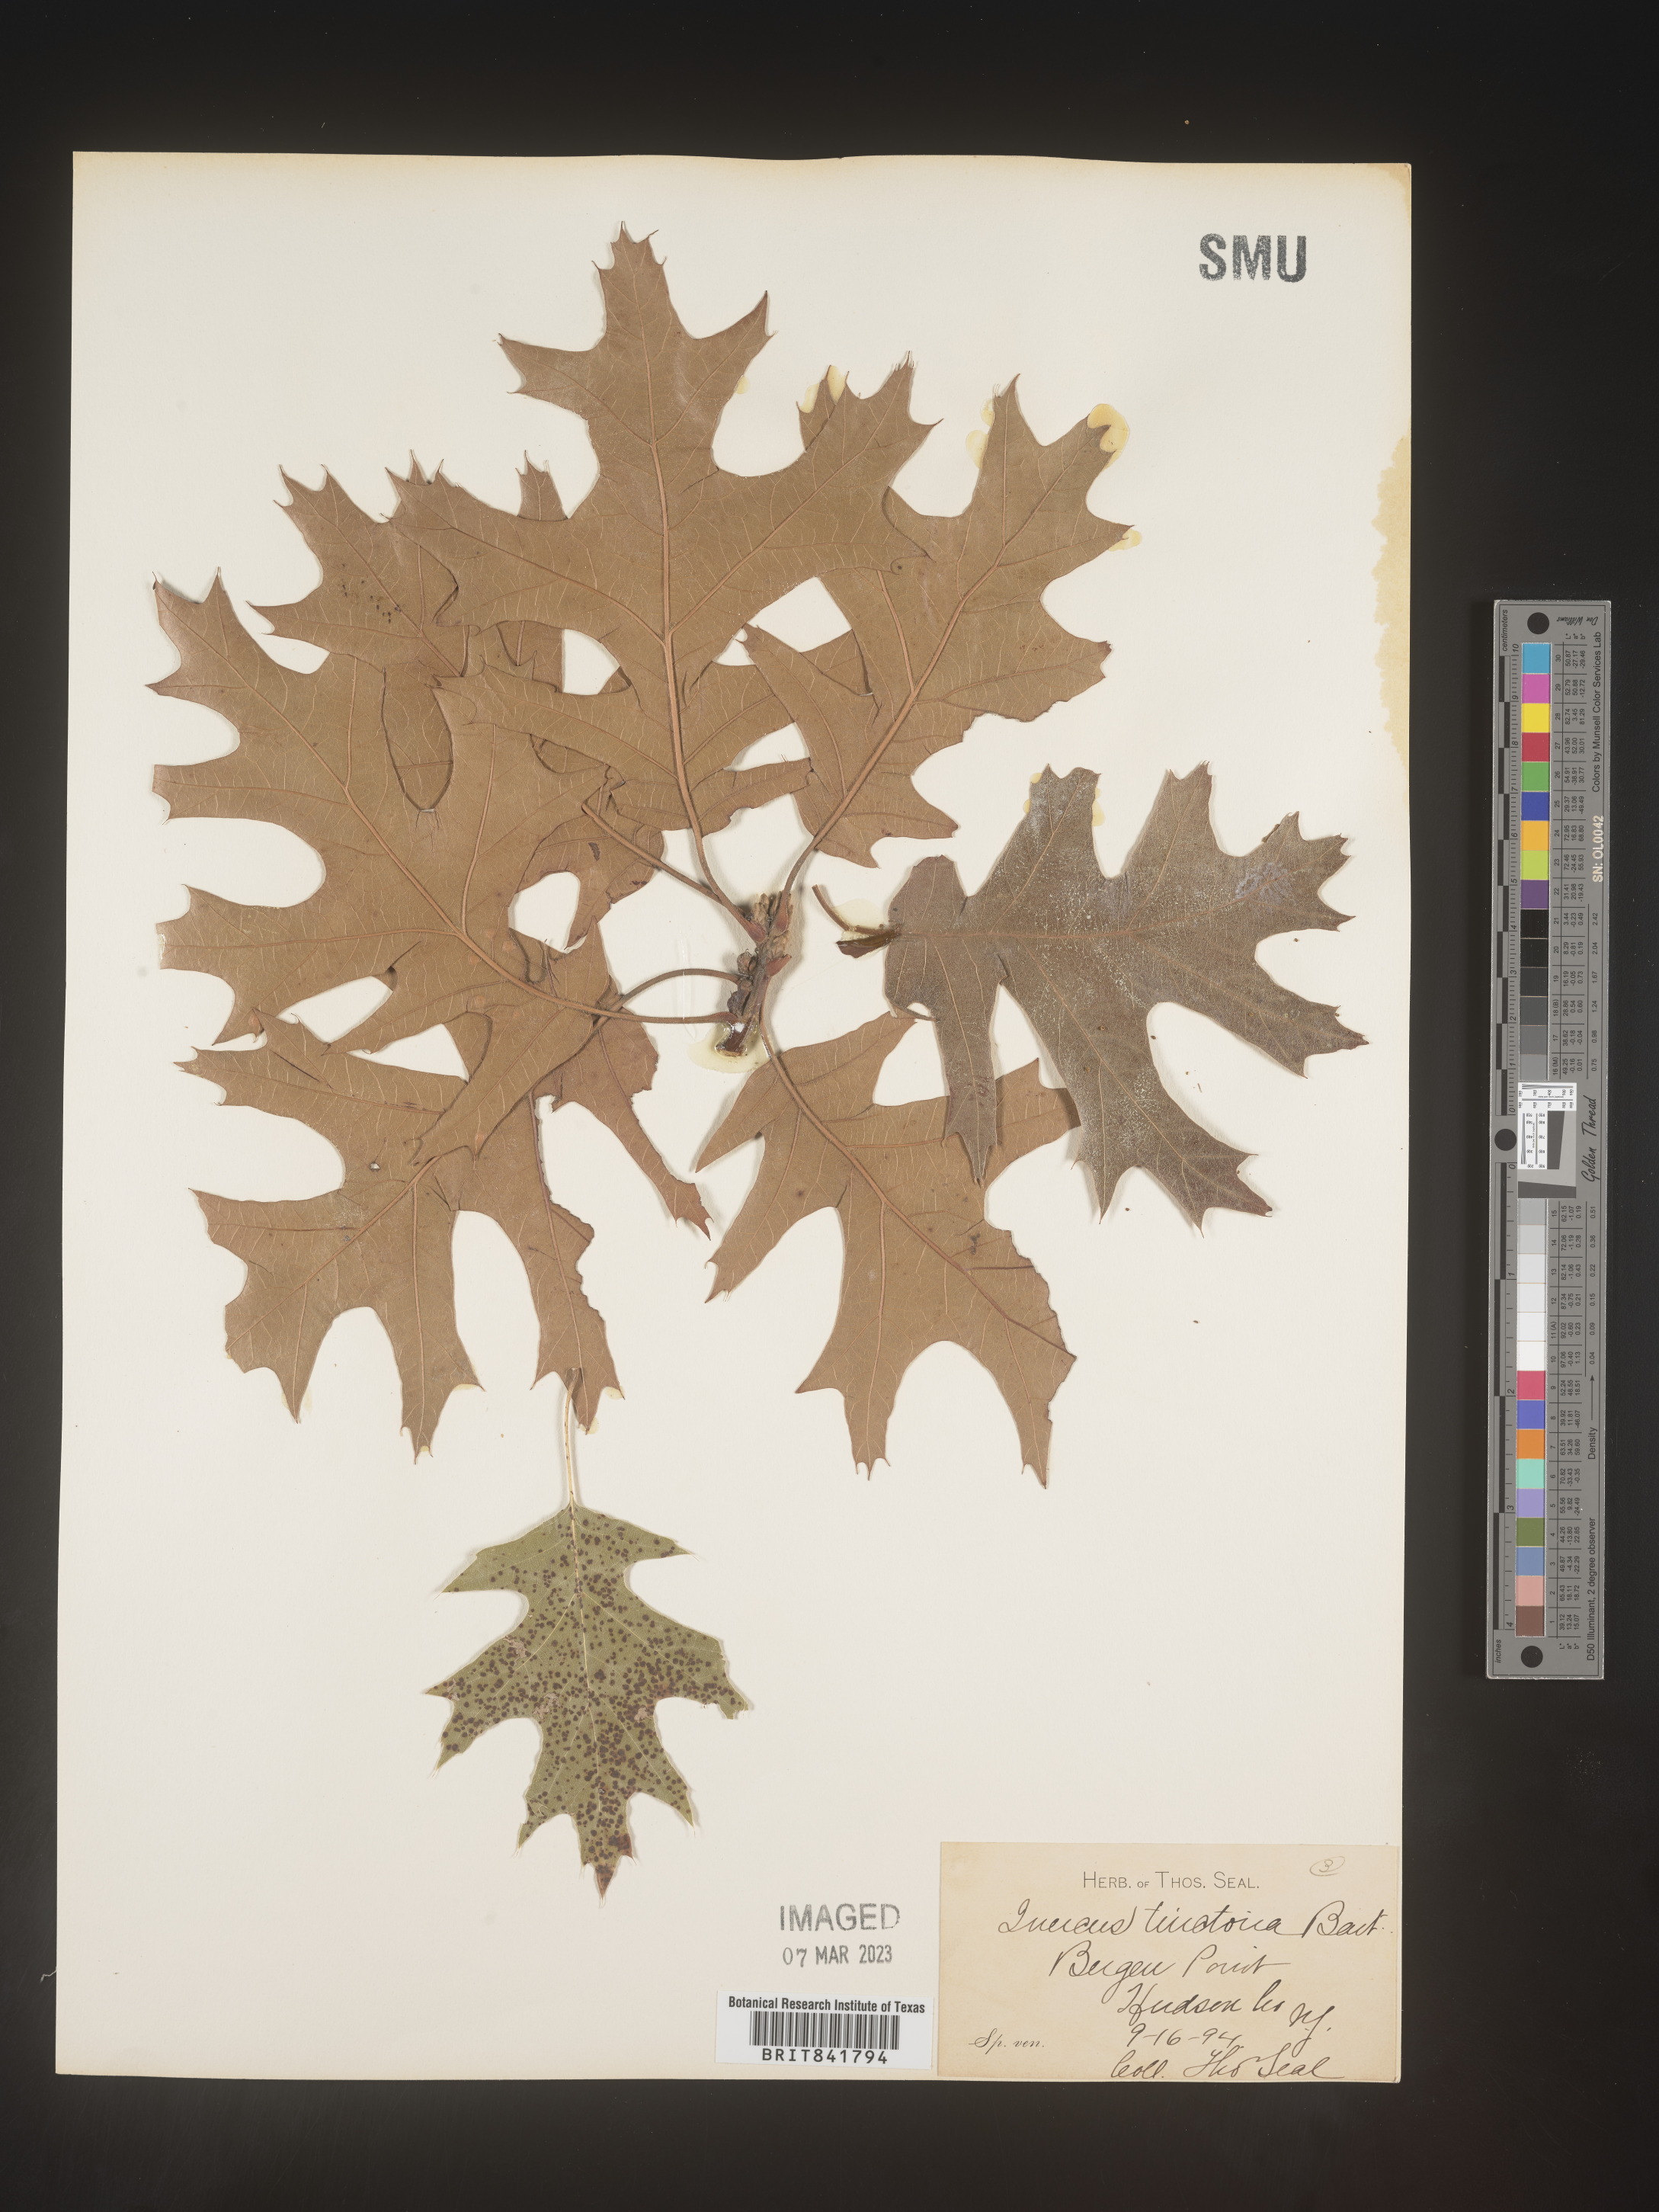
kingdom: Plantae
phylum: Tracheophyta
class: Magnoliopsida
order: Fagales
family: Fagaceae
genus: Quercus
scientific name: Quercus
